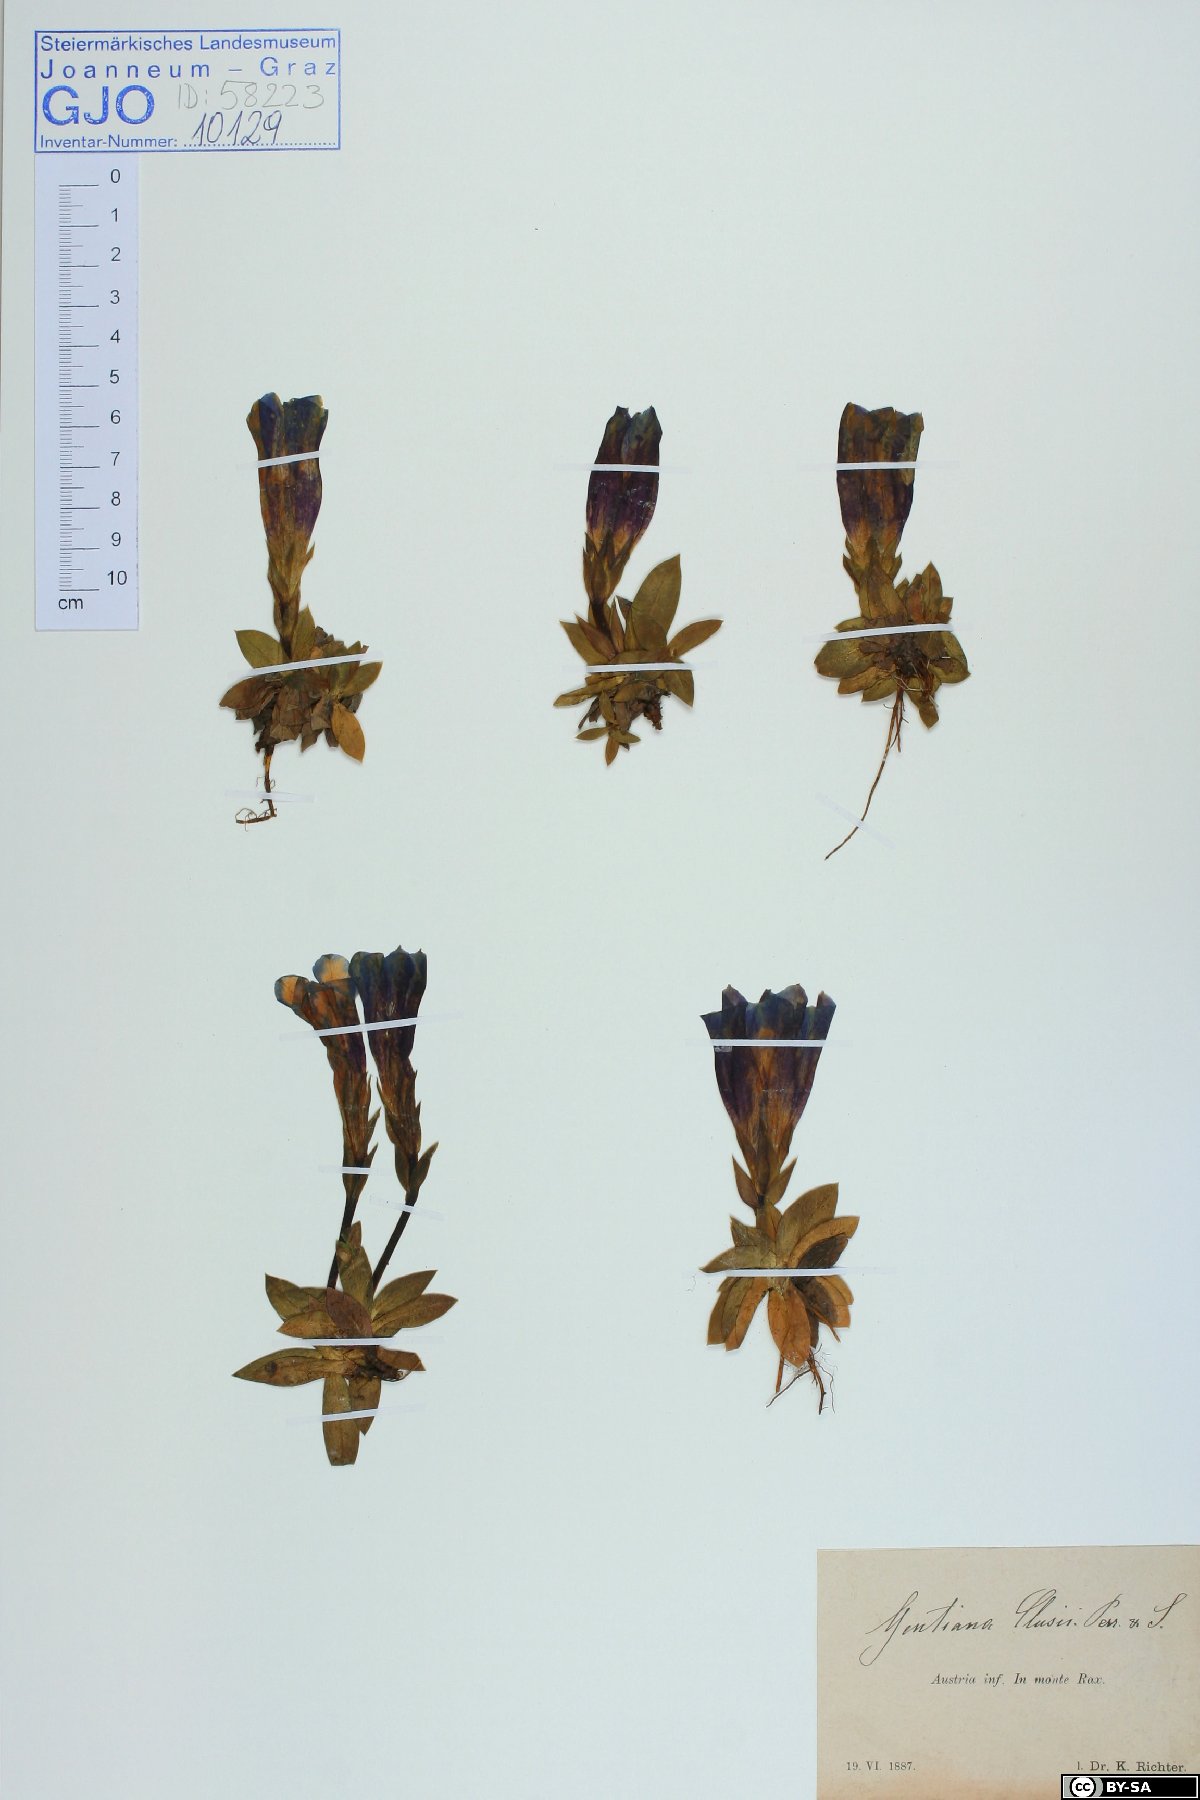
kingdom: Plantae
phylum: Tracheophyta
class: Magnoliopsida
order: Gentianales
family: Gentianaceae
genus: Gentiana
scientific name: Gentiana clusii
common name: Trumpet gentian
